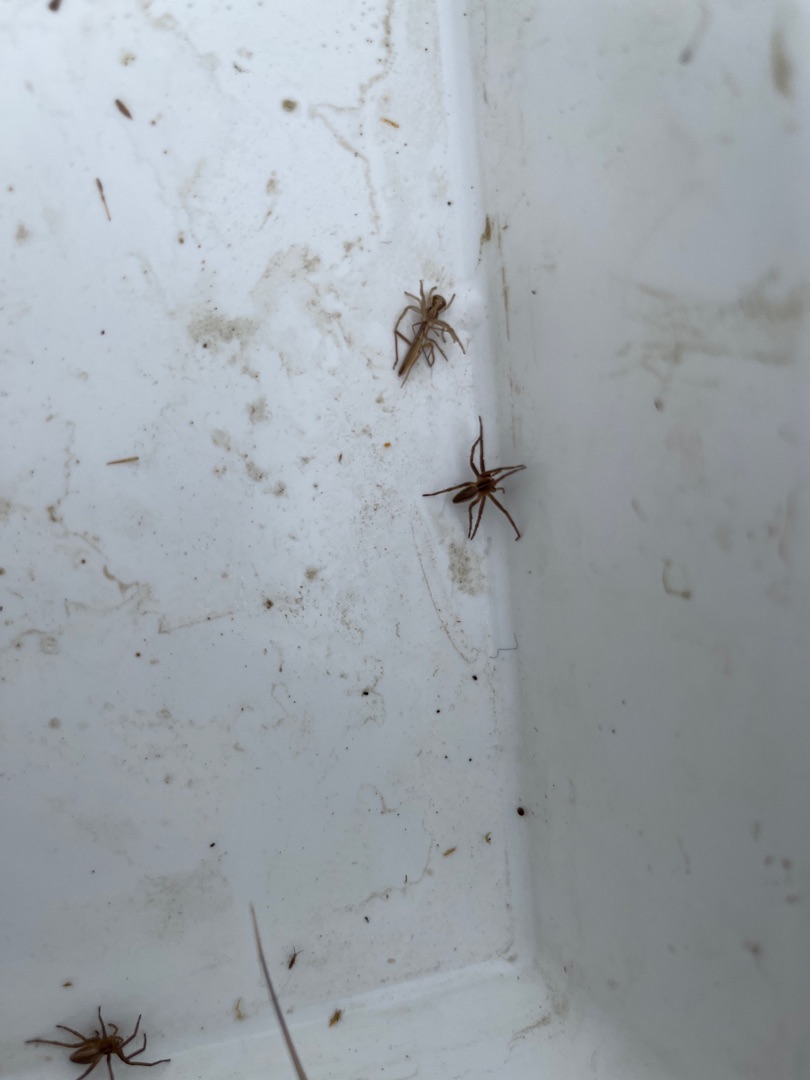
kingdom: Animalia
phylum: Arthropoda
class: Arachnida
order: Araneae
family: Pisauridae
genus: Pisaura
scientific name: Pisaura mirabilis
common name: Almindelig rovedderkop
